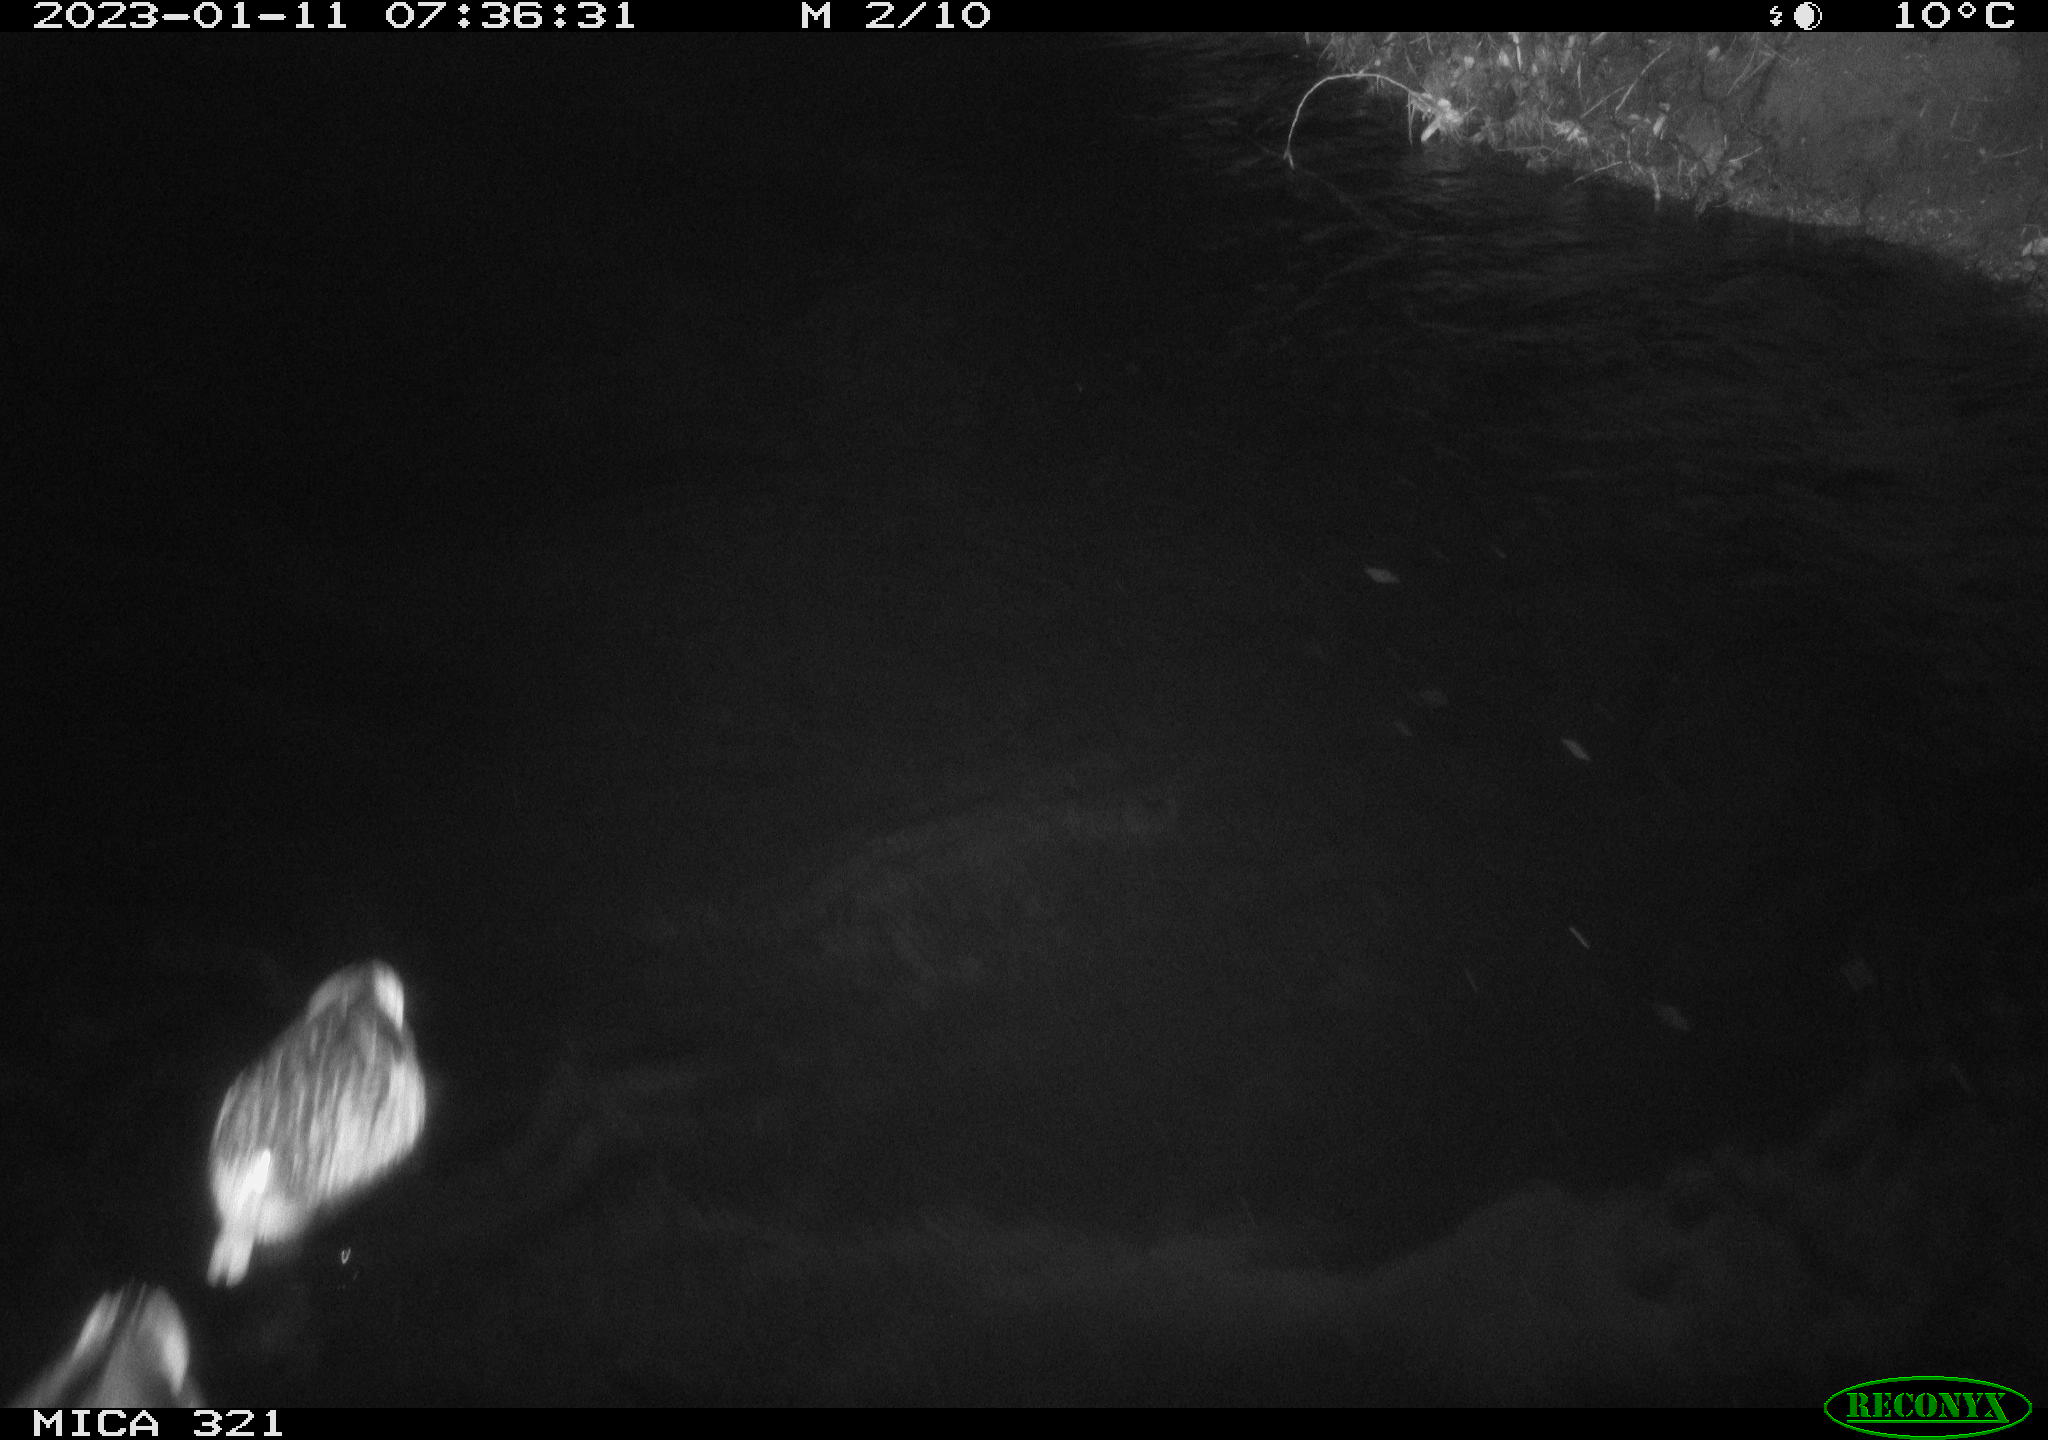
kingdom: Animalia
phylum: Chordata
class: Mammalia
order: Rodentia
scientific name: Rodentia
